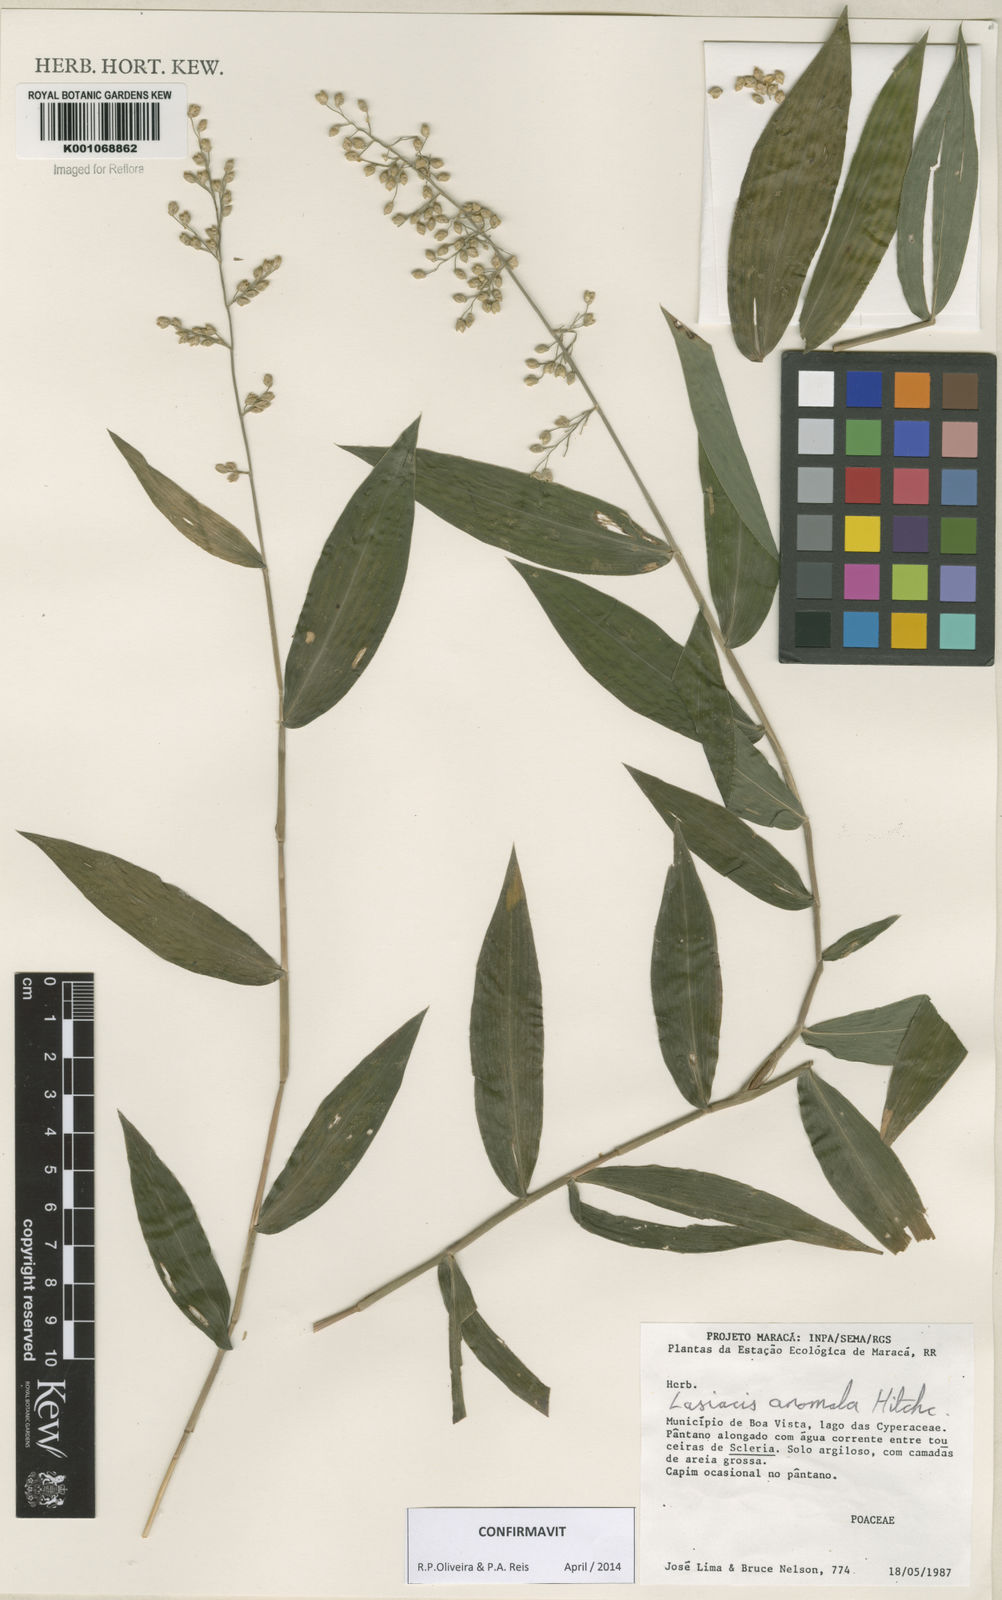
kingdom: Plantae
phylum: Tracheophyta
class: Liliopsida
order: Poales
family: Poaceae
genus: Lasiacis
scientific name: Lasiacis anomala
